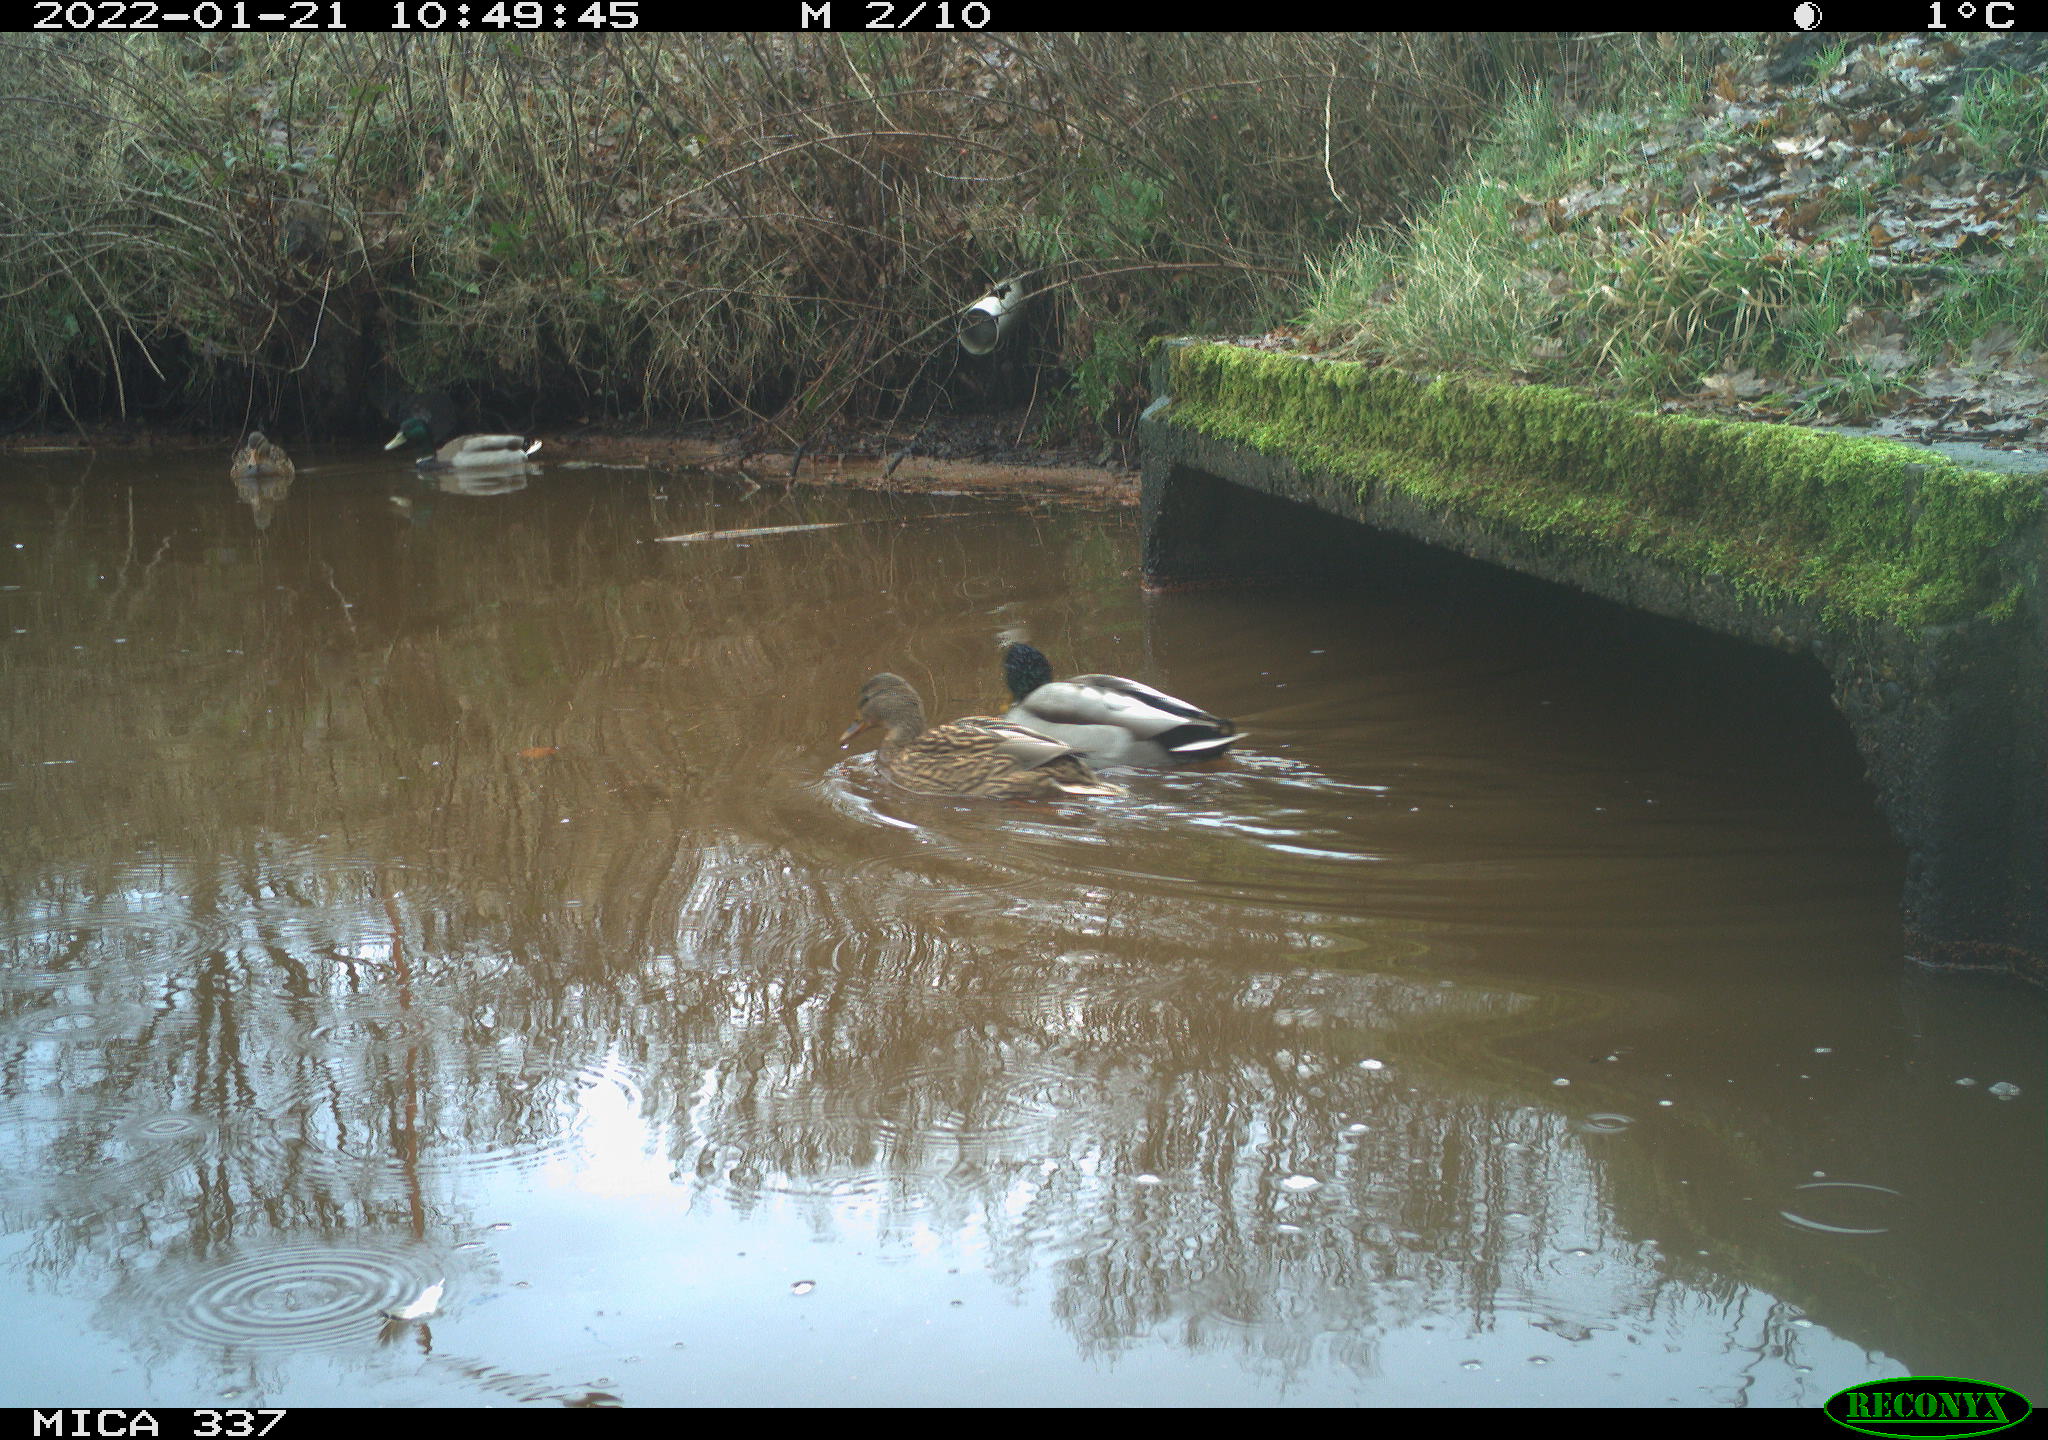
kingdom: Animalia
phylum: Chordata
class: Aves
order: Anseriformes
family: Anatidae
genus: Anas
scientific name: Anas platyrhynchos
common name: Mallard
